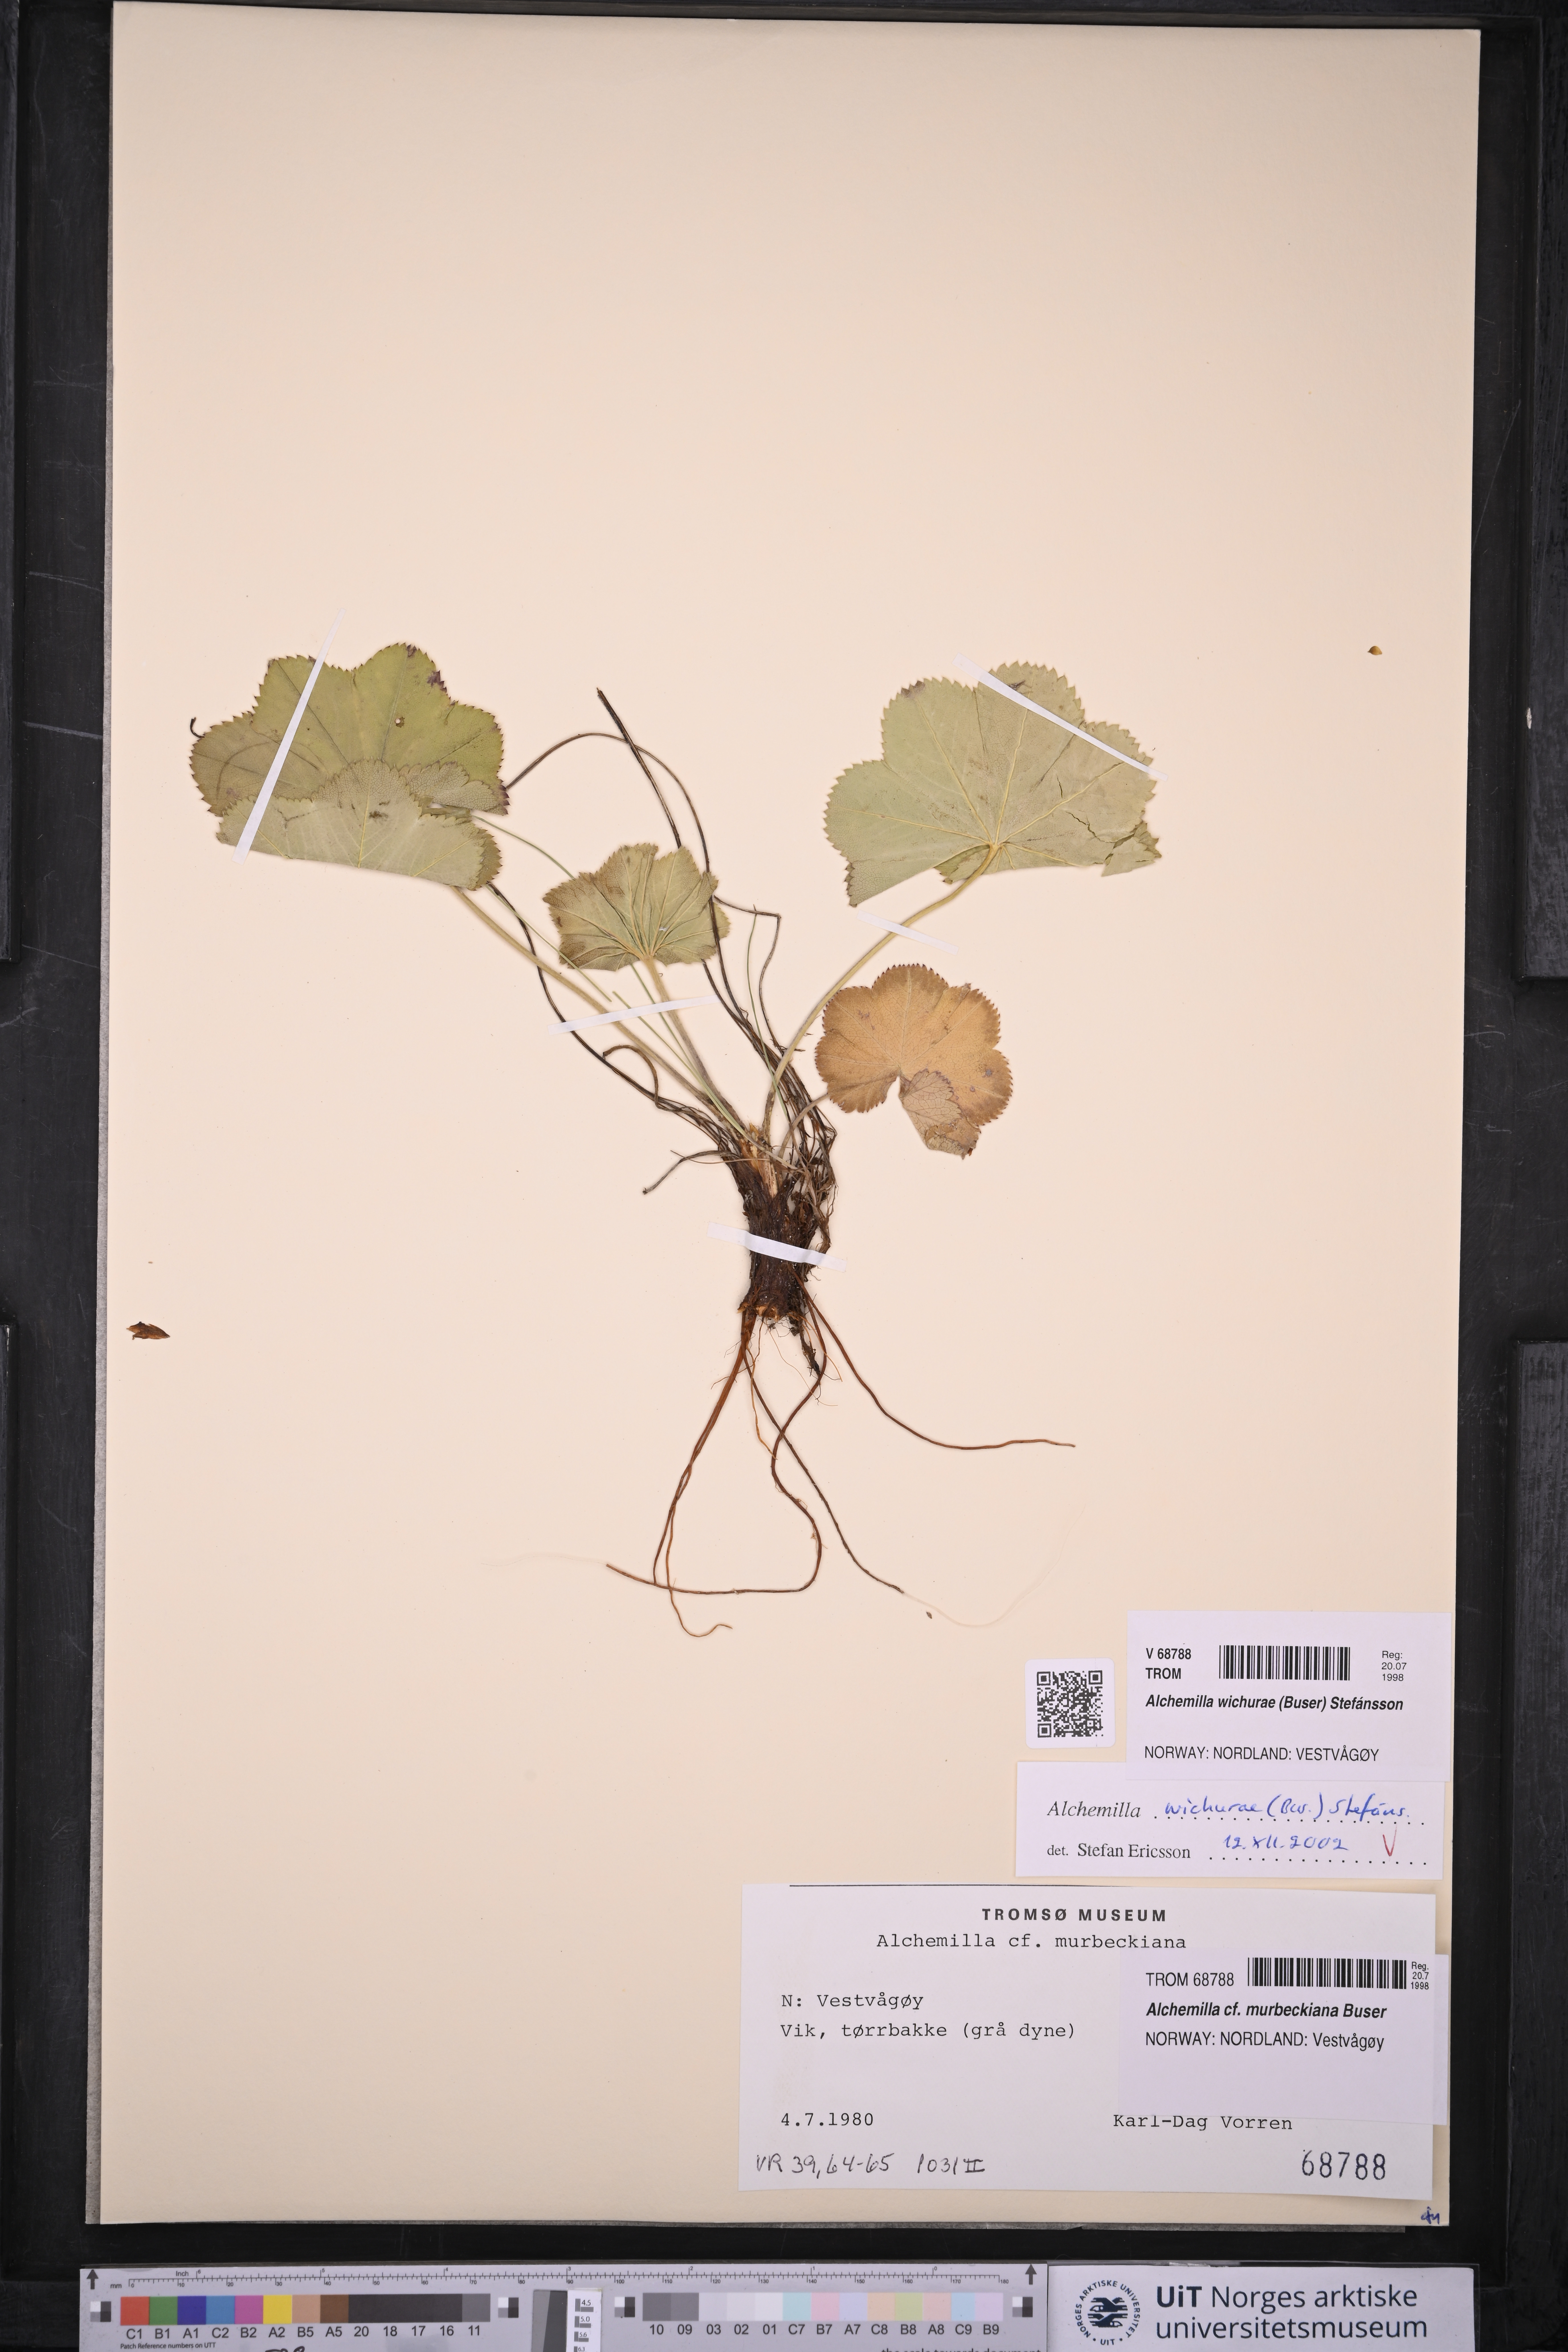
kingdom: Plantae
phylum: Tracheophyta
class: Magnoliopsida
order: Rosales
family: Rosaceae
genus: Alchemilla
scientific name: Alchemilla wichurae
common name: Rock lady's mantle
